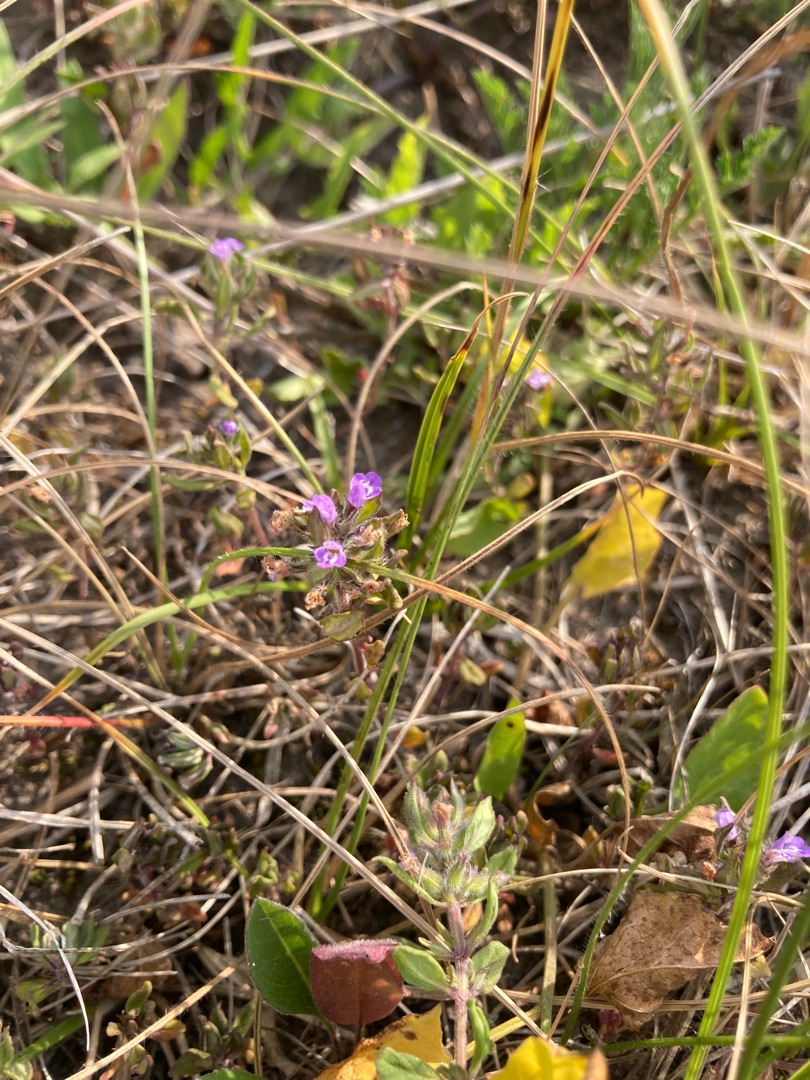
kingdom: Plantae
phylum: Tracheophyta
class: Magnoliopsida
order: Lamiales
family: Lamiaceae
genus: Clinopodium
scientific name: Clinopodium acinos
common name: Voldtimian
